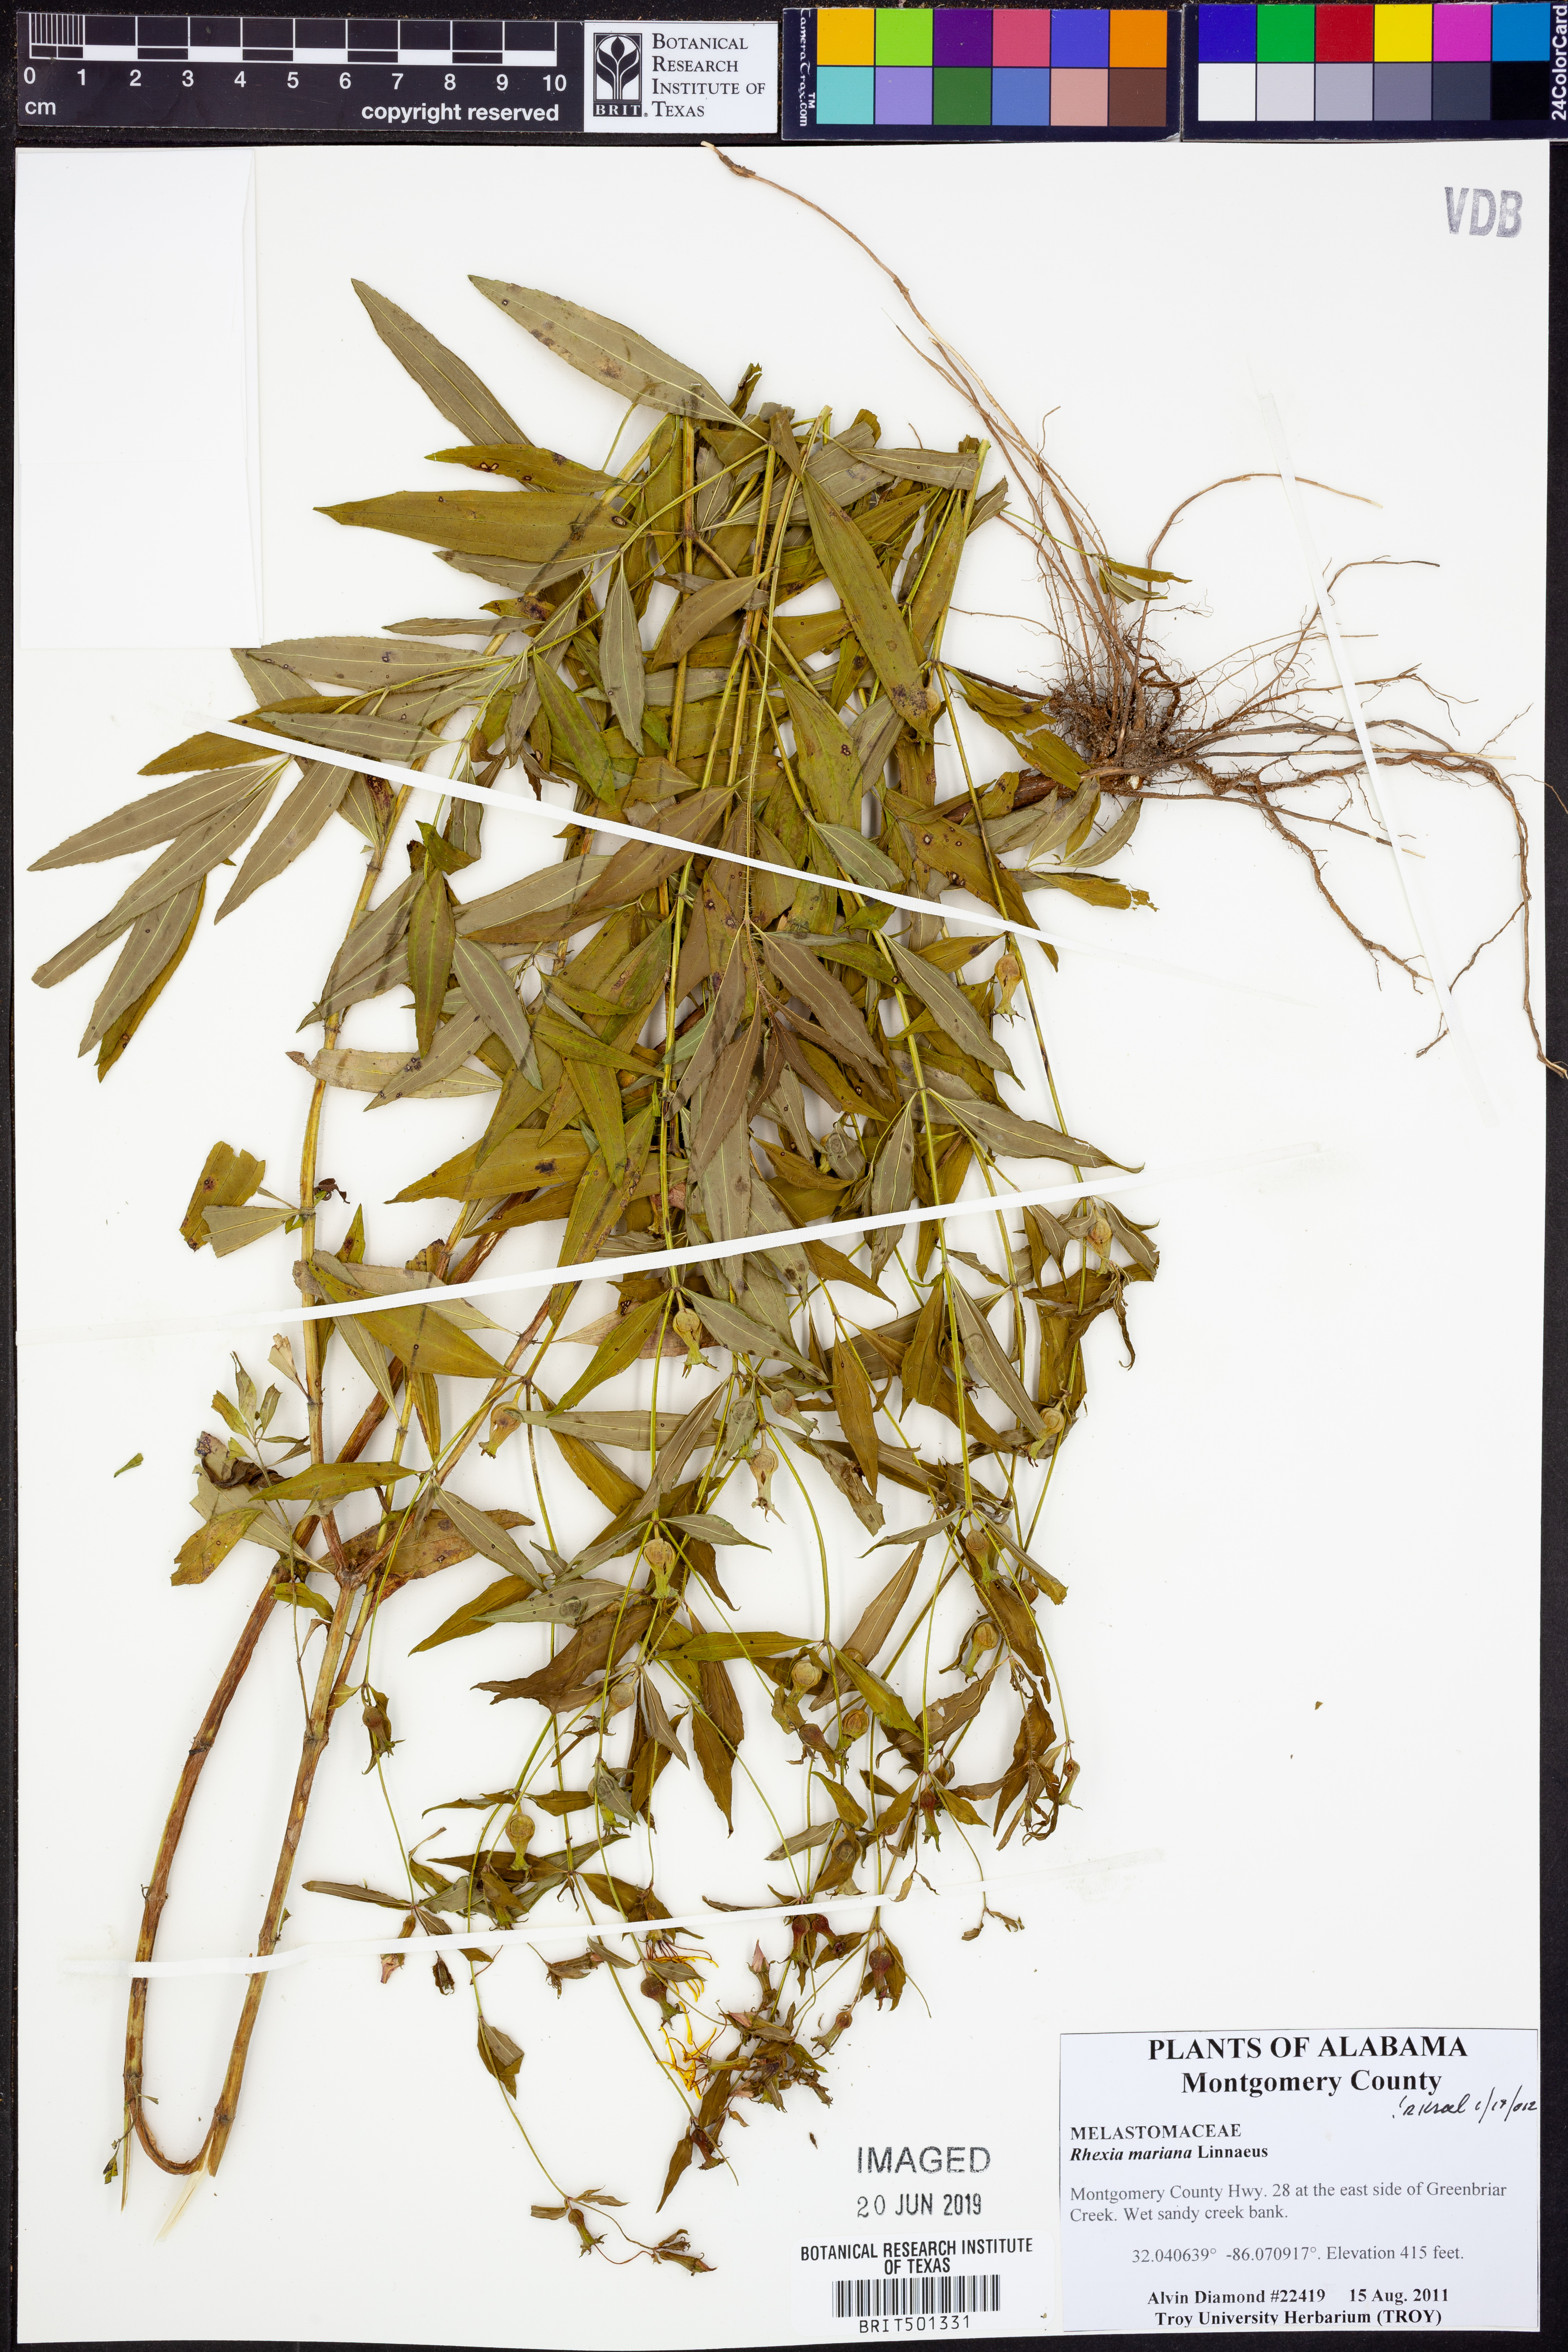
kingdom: Plantae
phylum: Tracheophyta
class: Magnoliopsida
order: Myrtales
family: Melastomataceae
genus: Rhexia
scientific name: Rhexia mariana
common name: Dull meadow-pitcher
